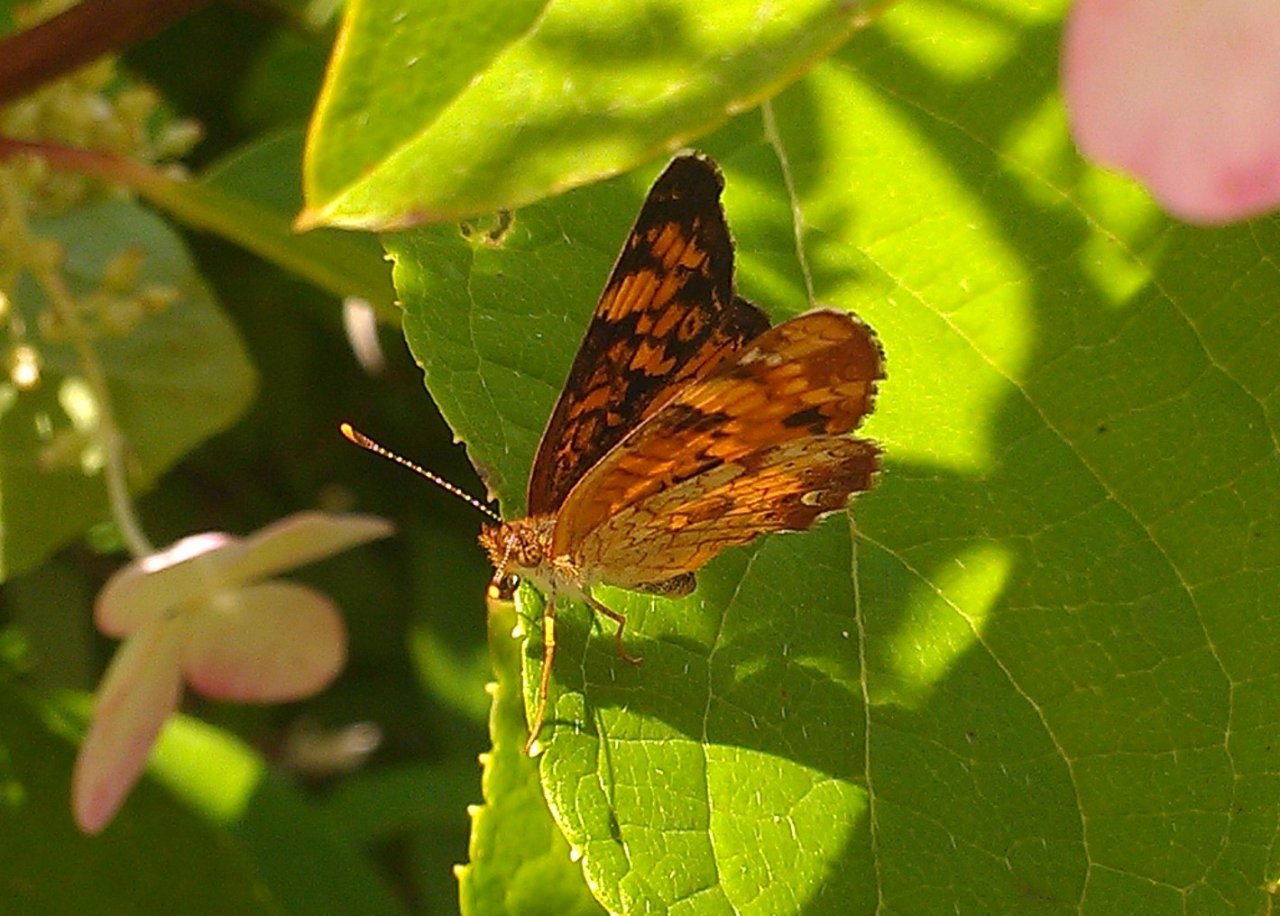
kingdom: Animalia
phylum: Arthropoda
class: Insecta
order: Lepidoptera
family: Nymphalidae
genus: Phyciodes
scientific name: Phyciodes tharos
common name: Northern Crescent
